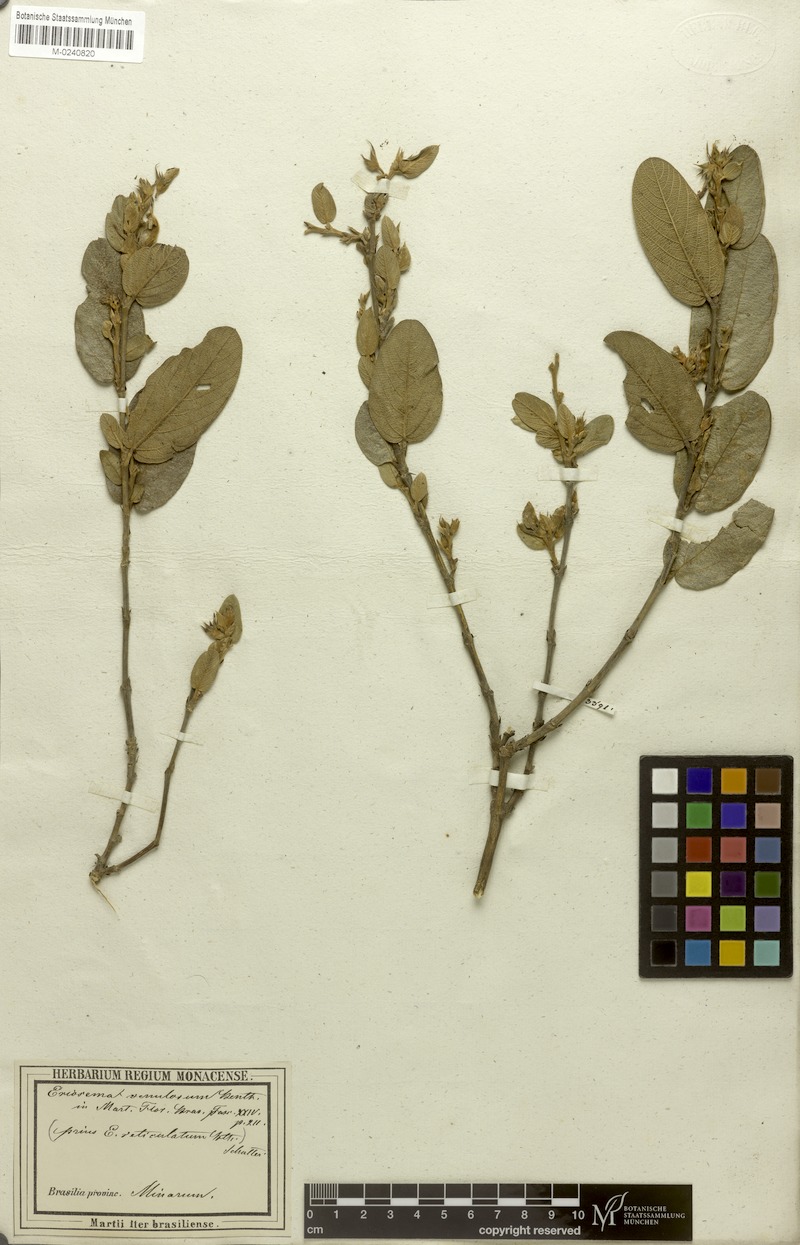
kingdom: Plantae
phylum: Tracheophyta
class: Magnoliopsida
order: Fabales
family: Fabaceae
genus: Eriosema
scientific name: Eriosema venulosum
